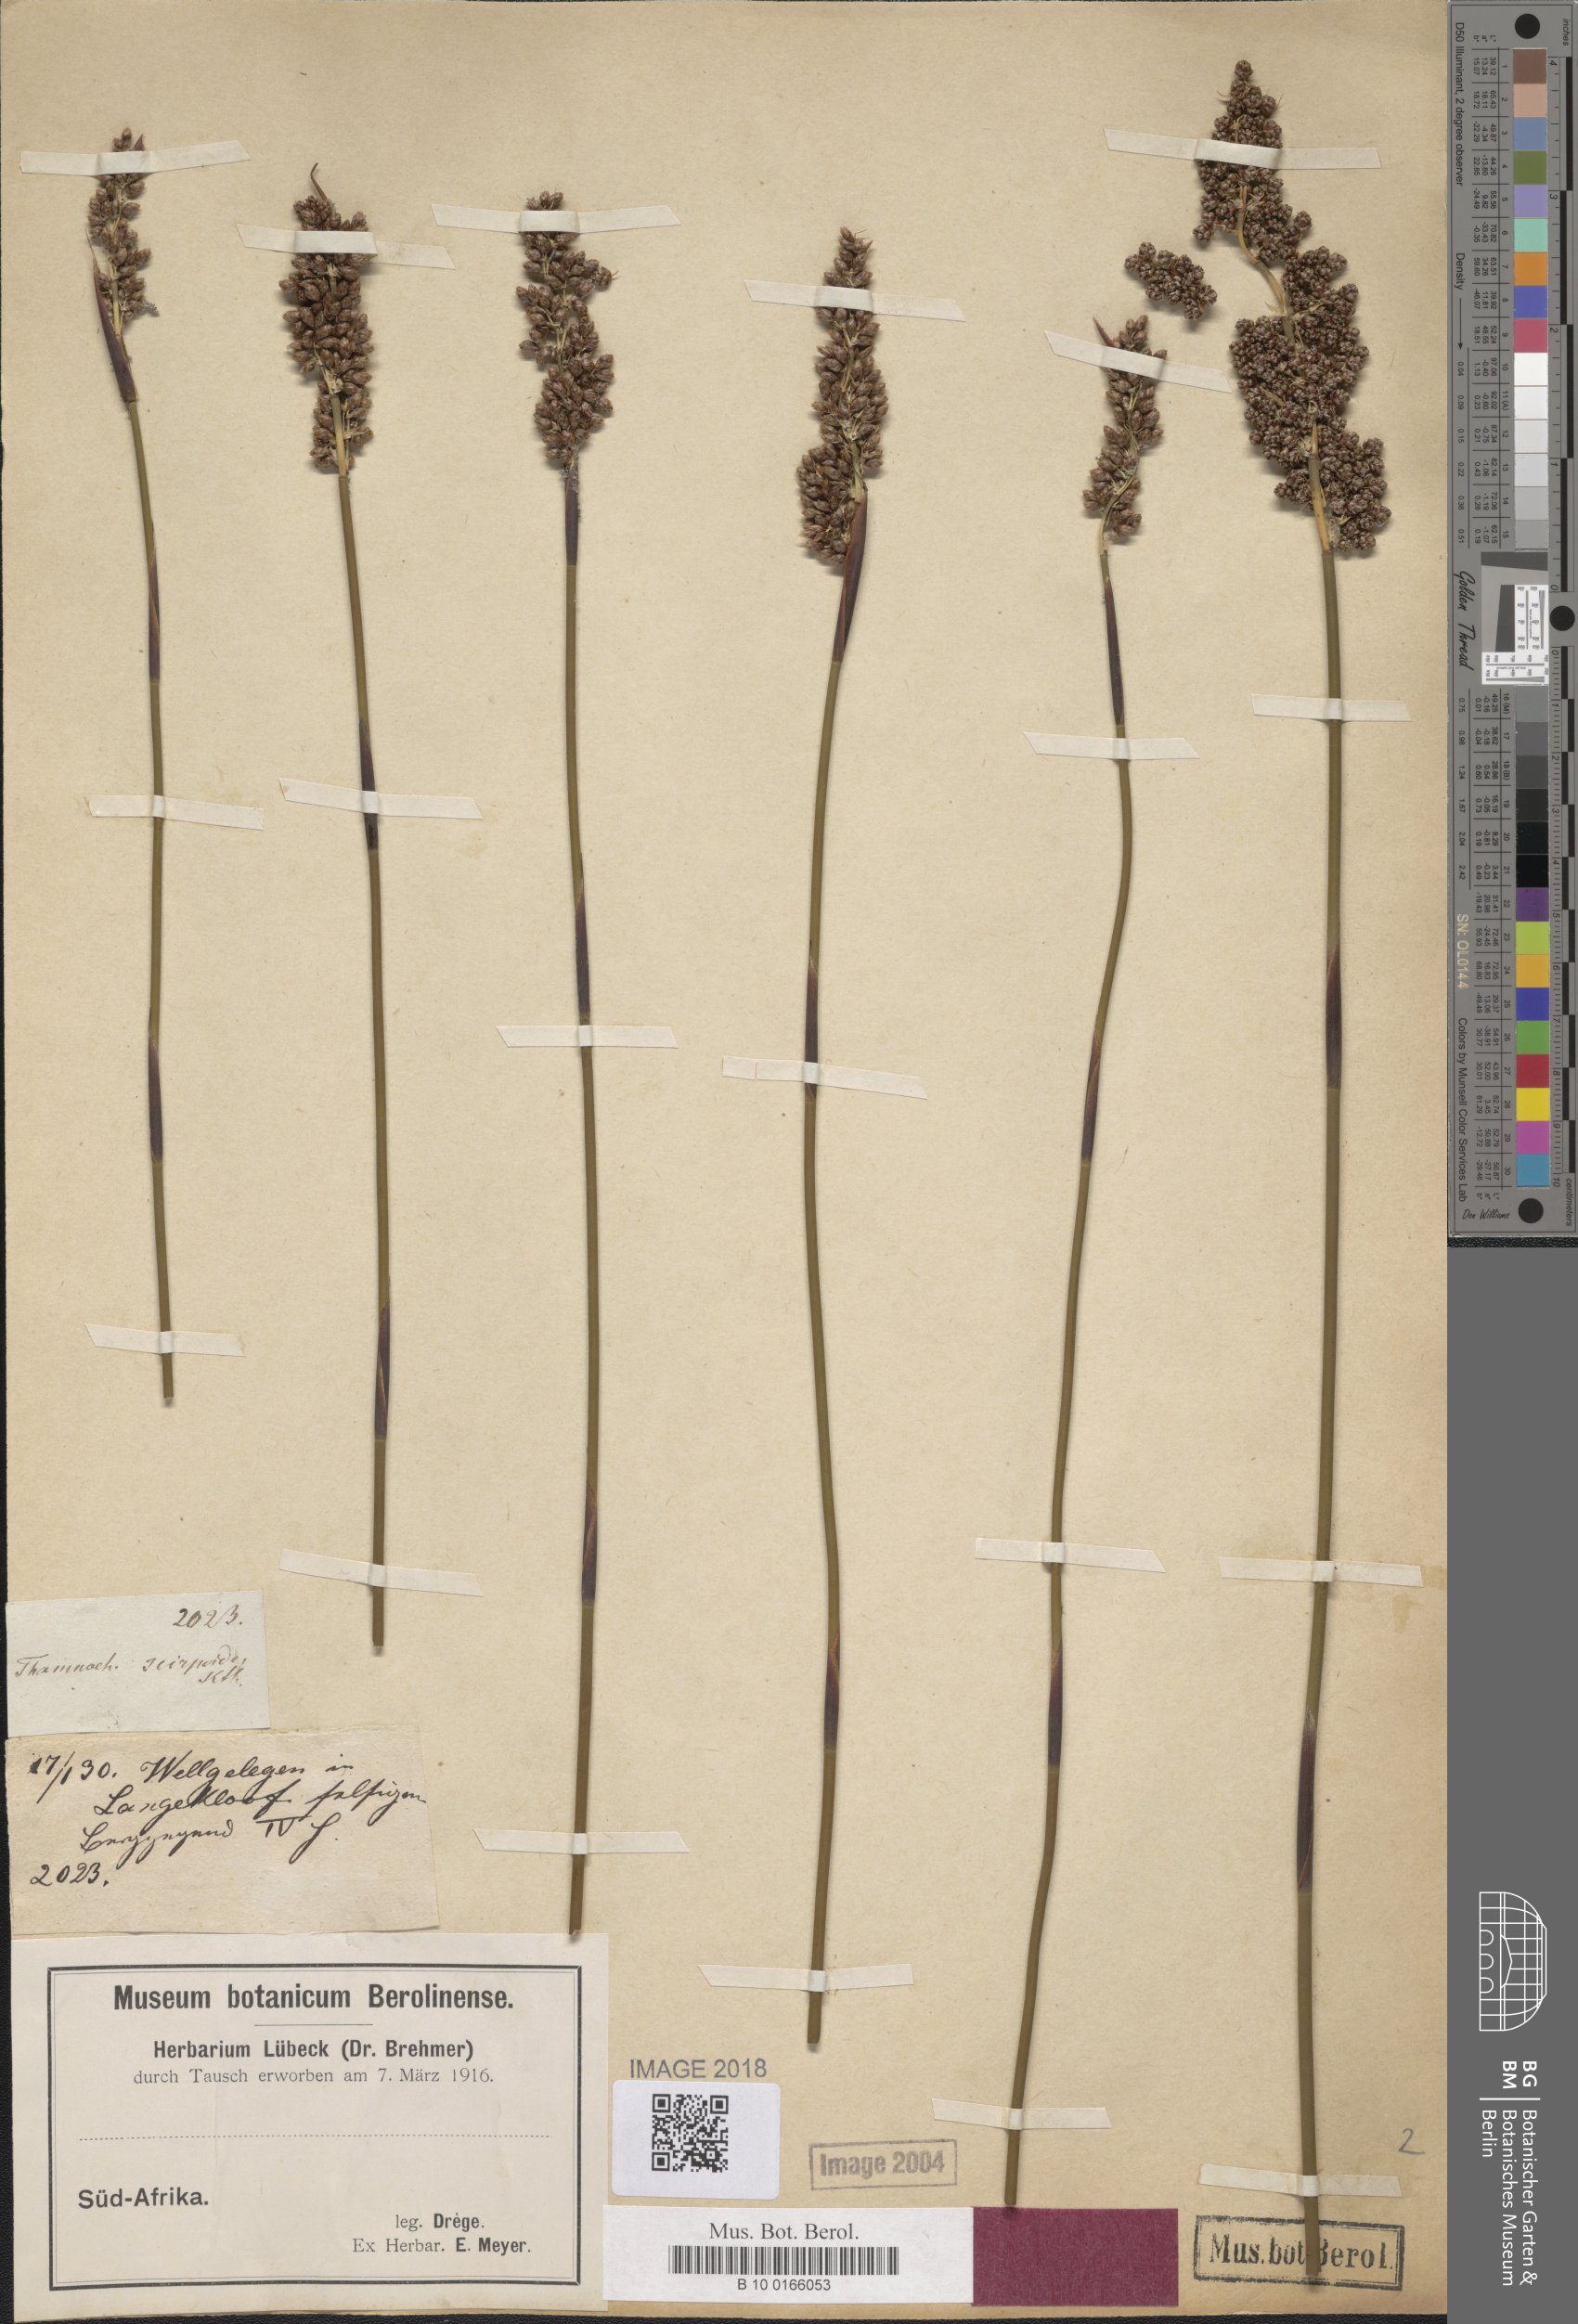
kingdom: Plantae
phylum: Tracheophyta
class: Liliopsida
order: Poales
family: Restionaceae
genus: Cannomois
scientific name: Cannomois scirpoides
